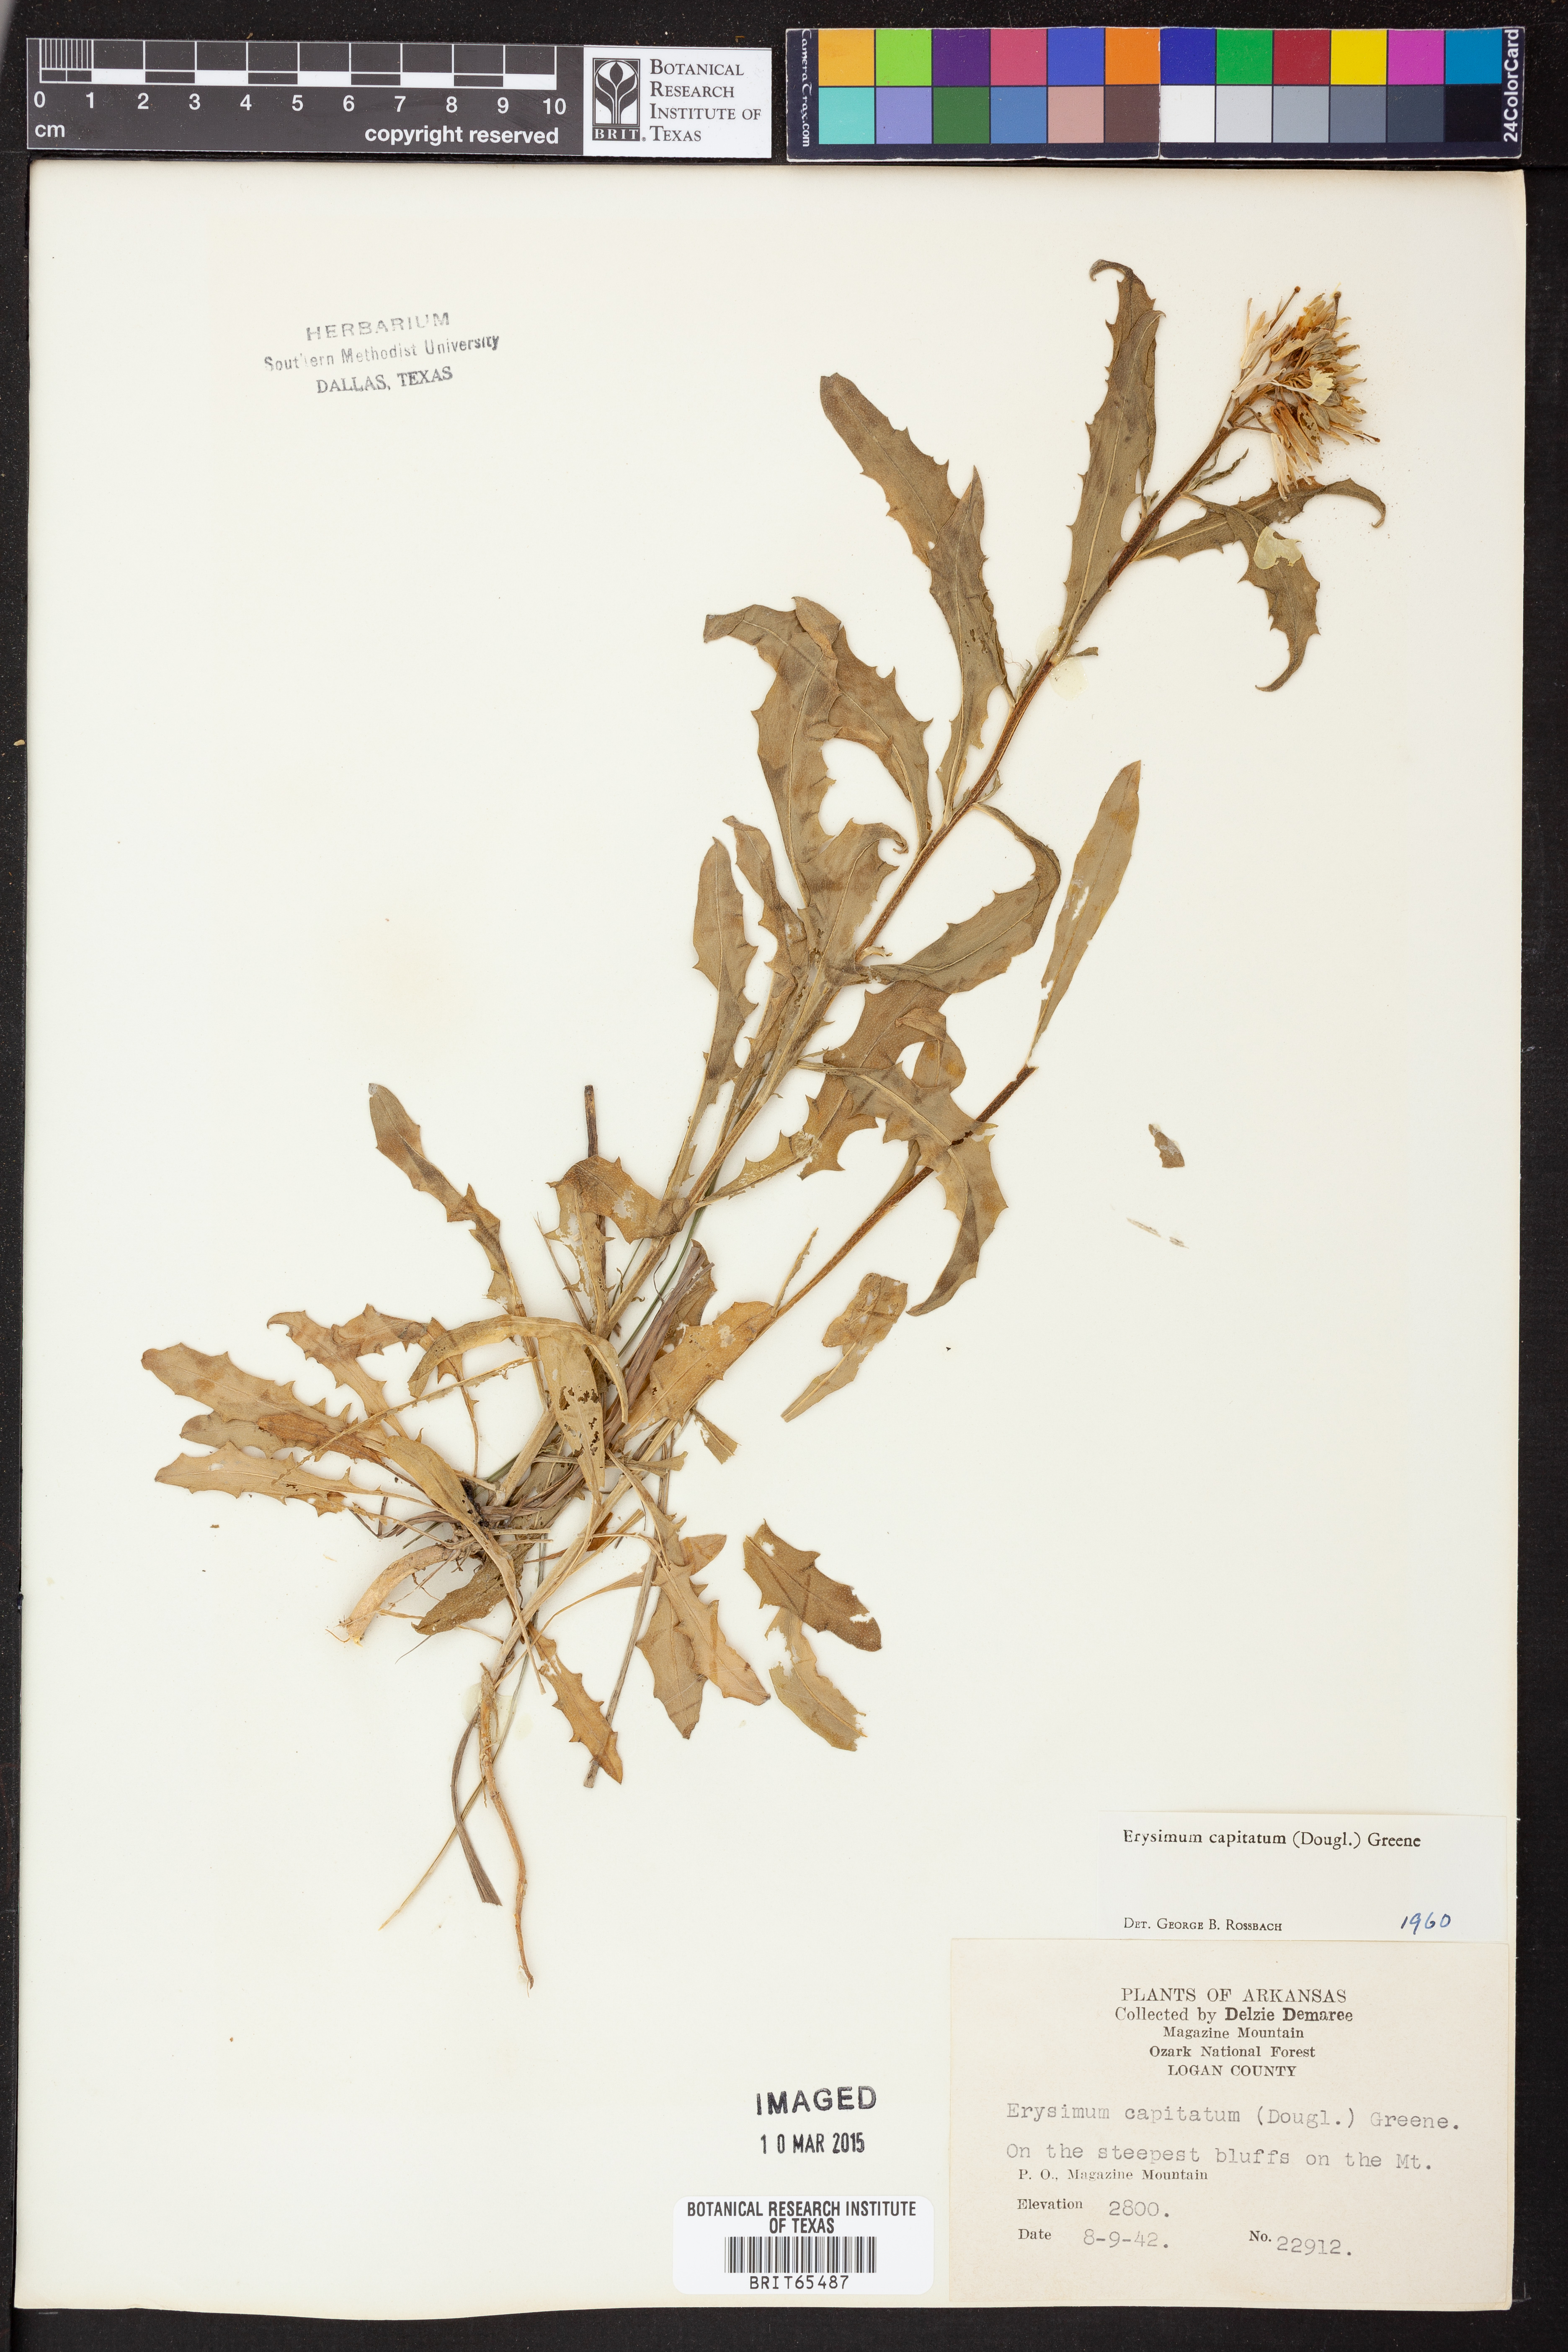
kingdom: Plantae
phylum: Tracheophyta
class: Magnoliopsida
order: Brassicales
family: Brassicaceae
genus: Erysimum
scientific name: Erysimum capitatum
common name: Western wallflower
